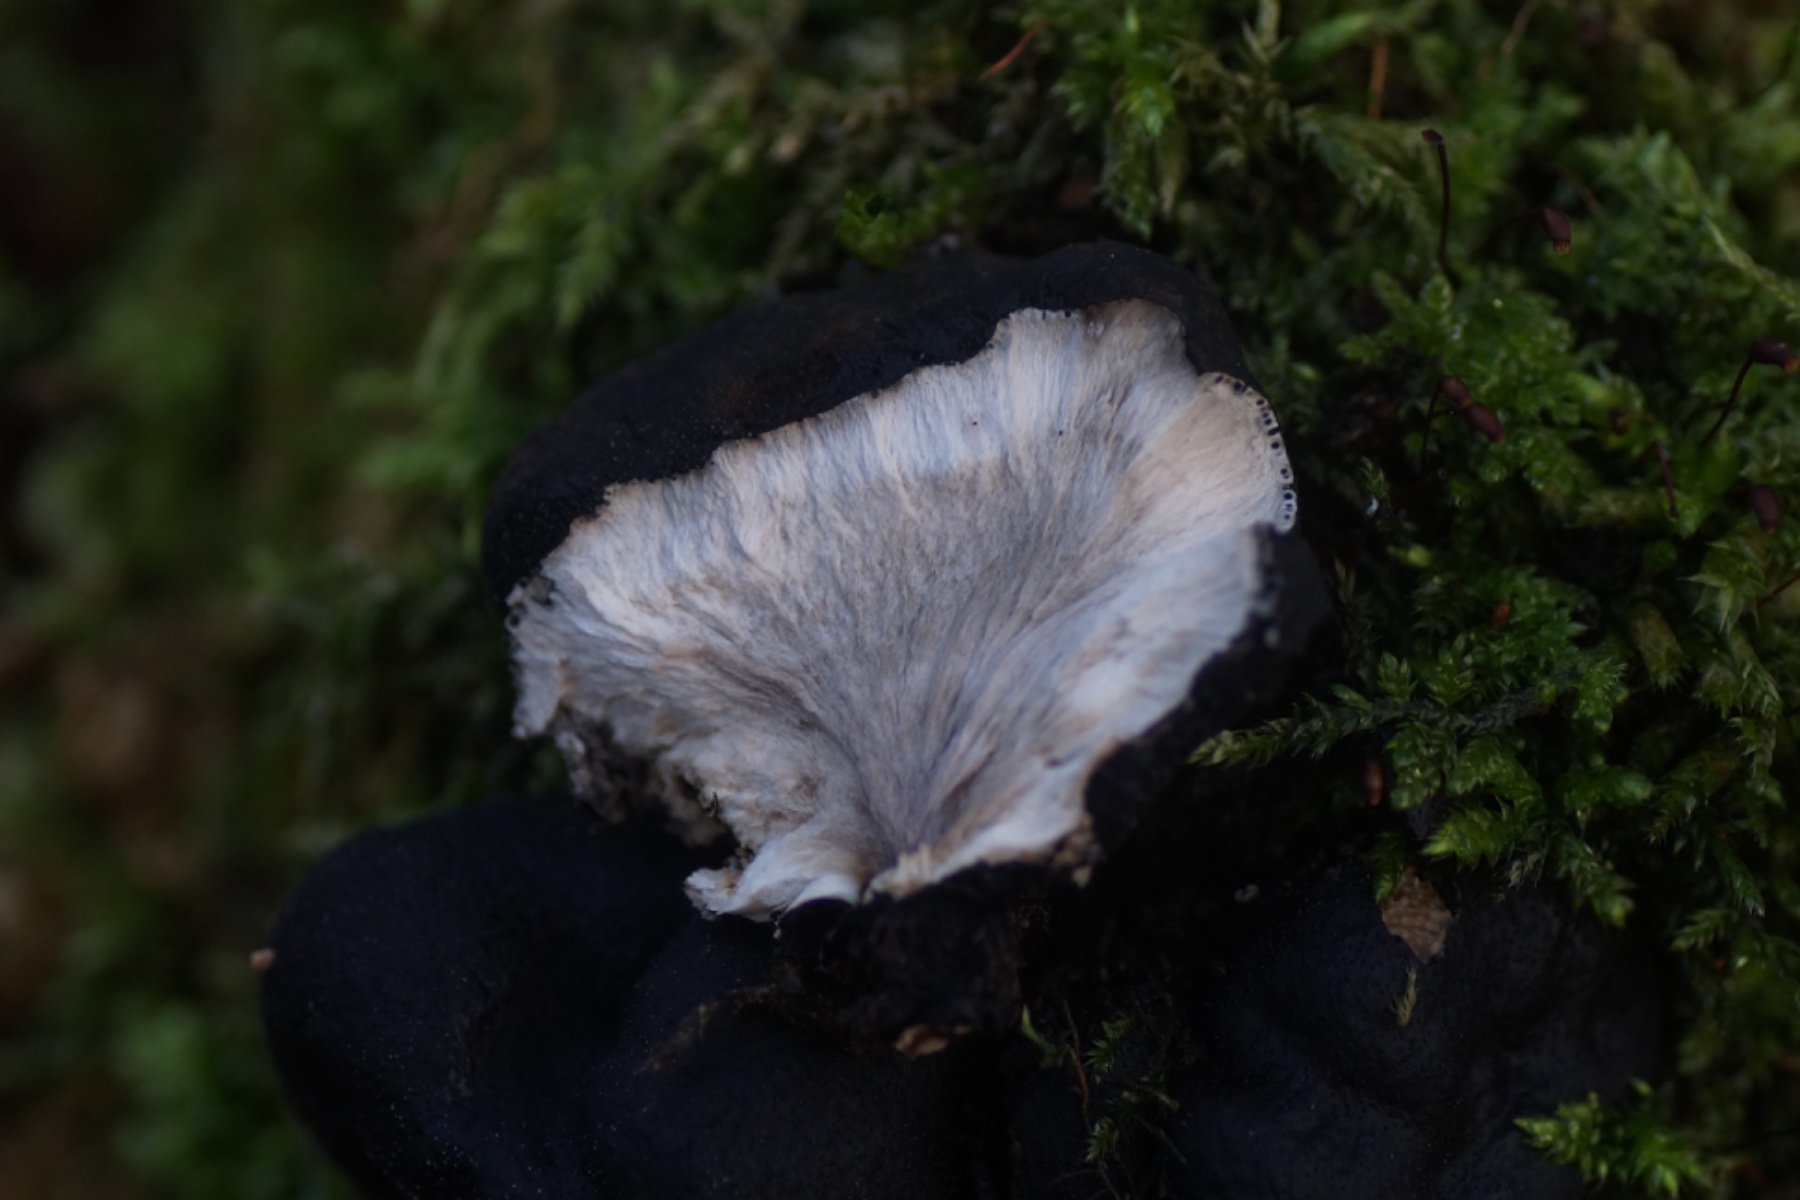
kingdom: Fungi
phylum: Ascomycota
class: Sordariomycetes
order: Xylariales
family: Xylariaceae
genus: Xylaria
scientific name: Xylaria polymorpha
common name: kølle-stødsvamp
